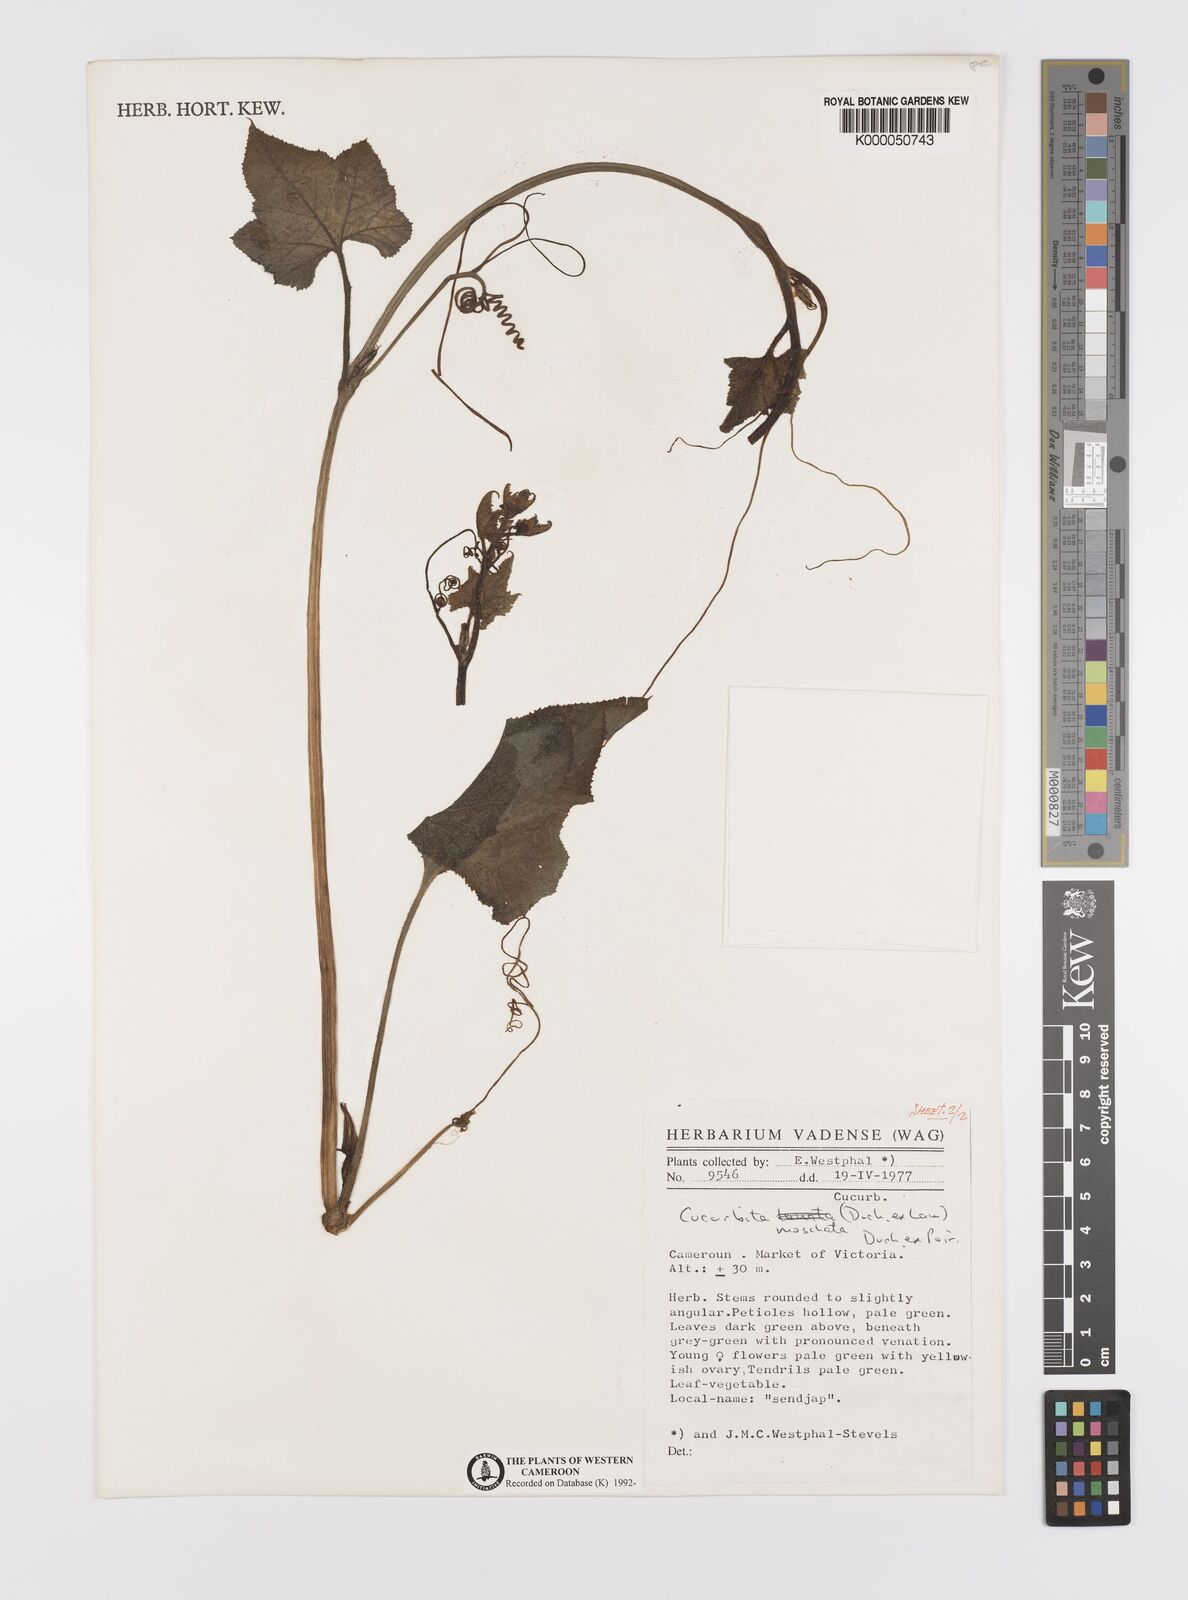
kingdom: Plantae
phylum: Tracheophyta
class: Magnoliopsida
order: Cucurbitales
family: Cucurbitaceae
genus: Cucurbita
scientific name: Cucurbita
